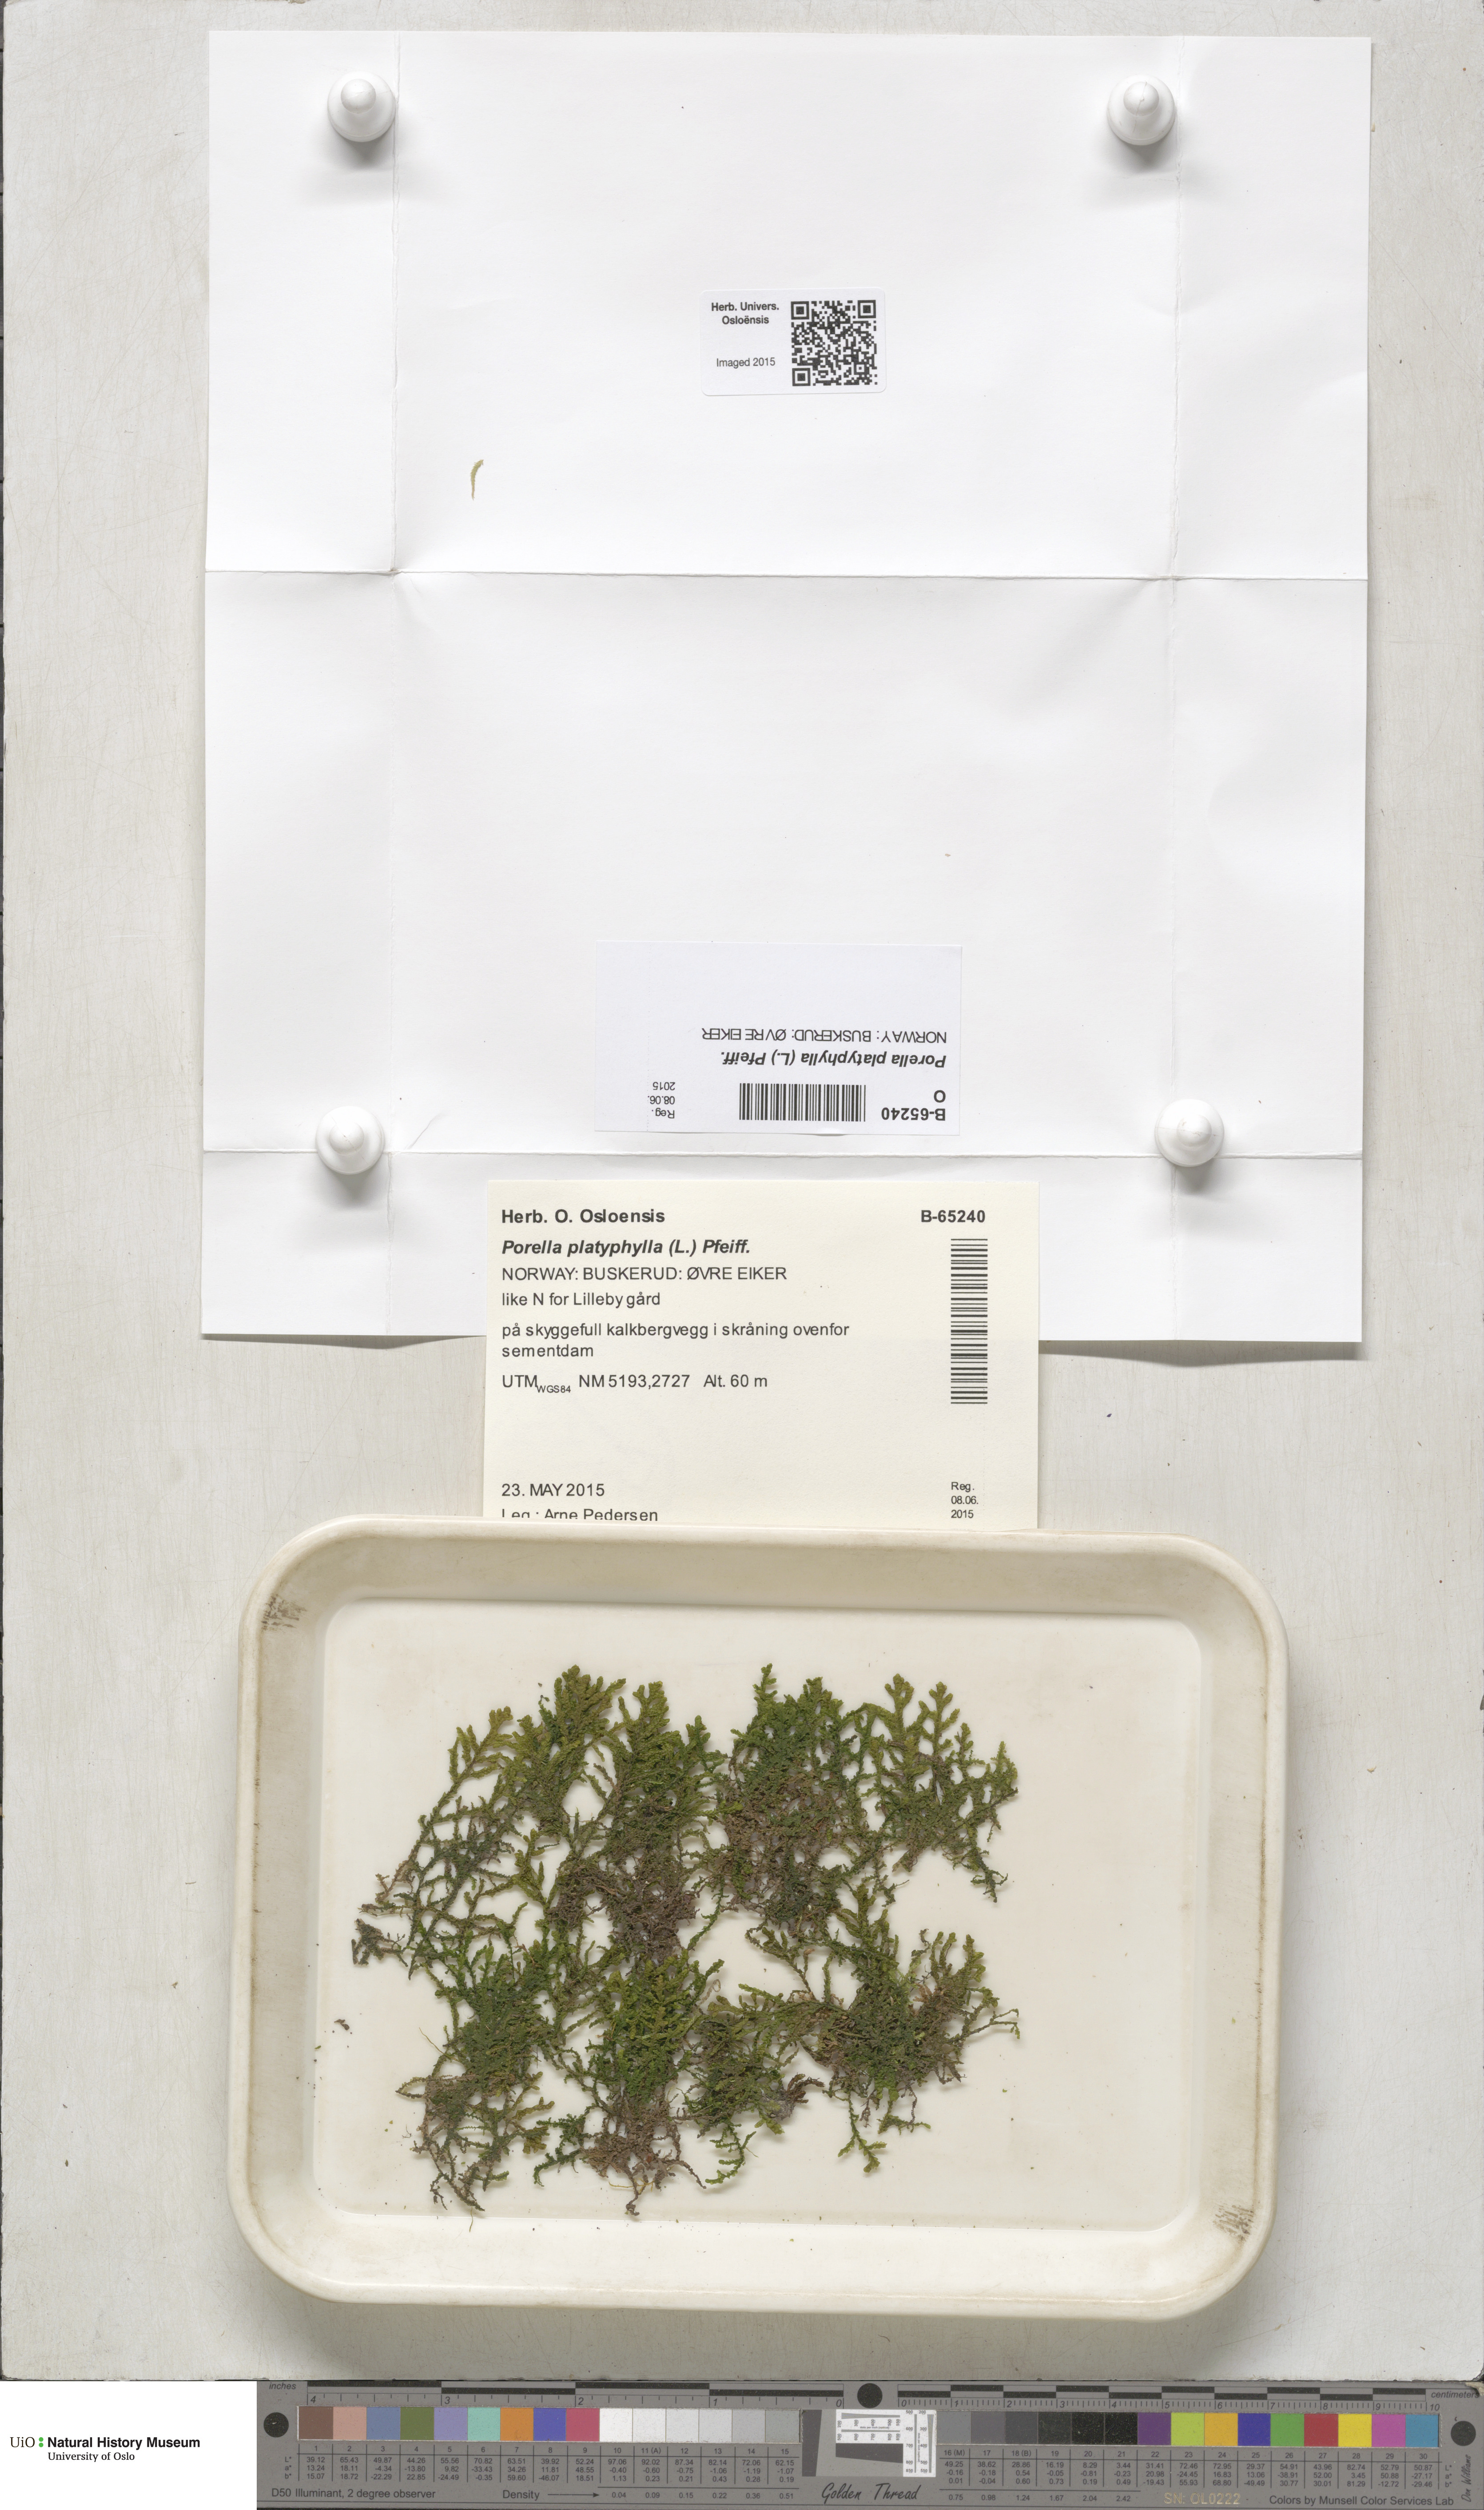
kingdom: Plantae
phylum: Marchantiophyta
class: Jungermanniopsida
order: Porellales
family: Porellaceae
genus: Porella
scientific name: Porella platyphylla
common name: Wall scalewort
